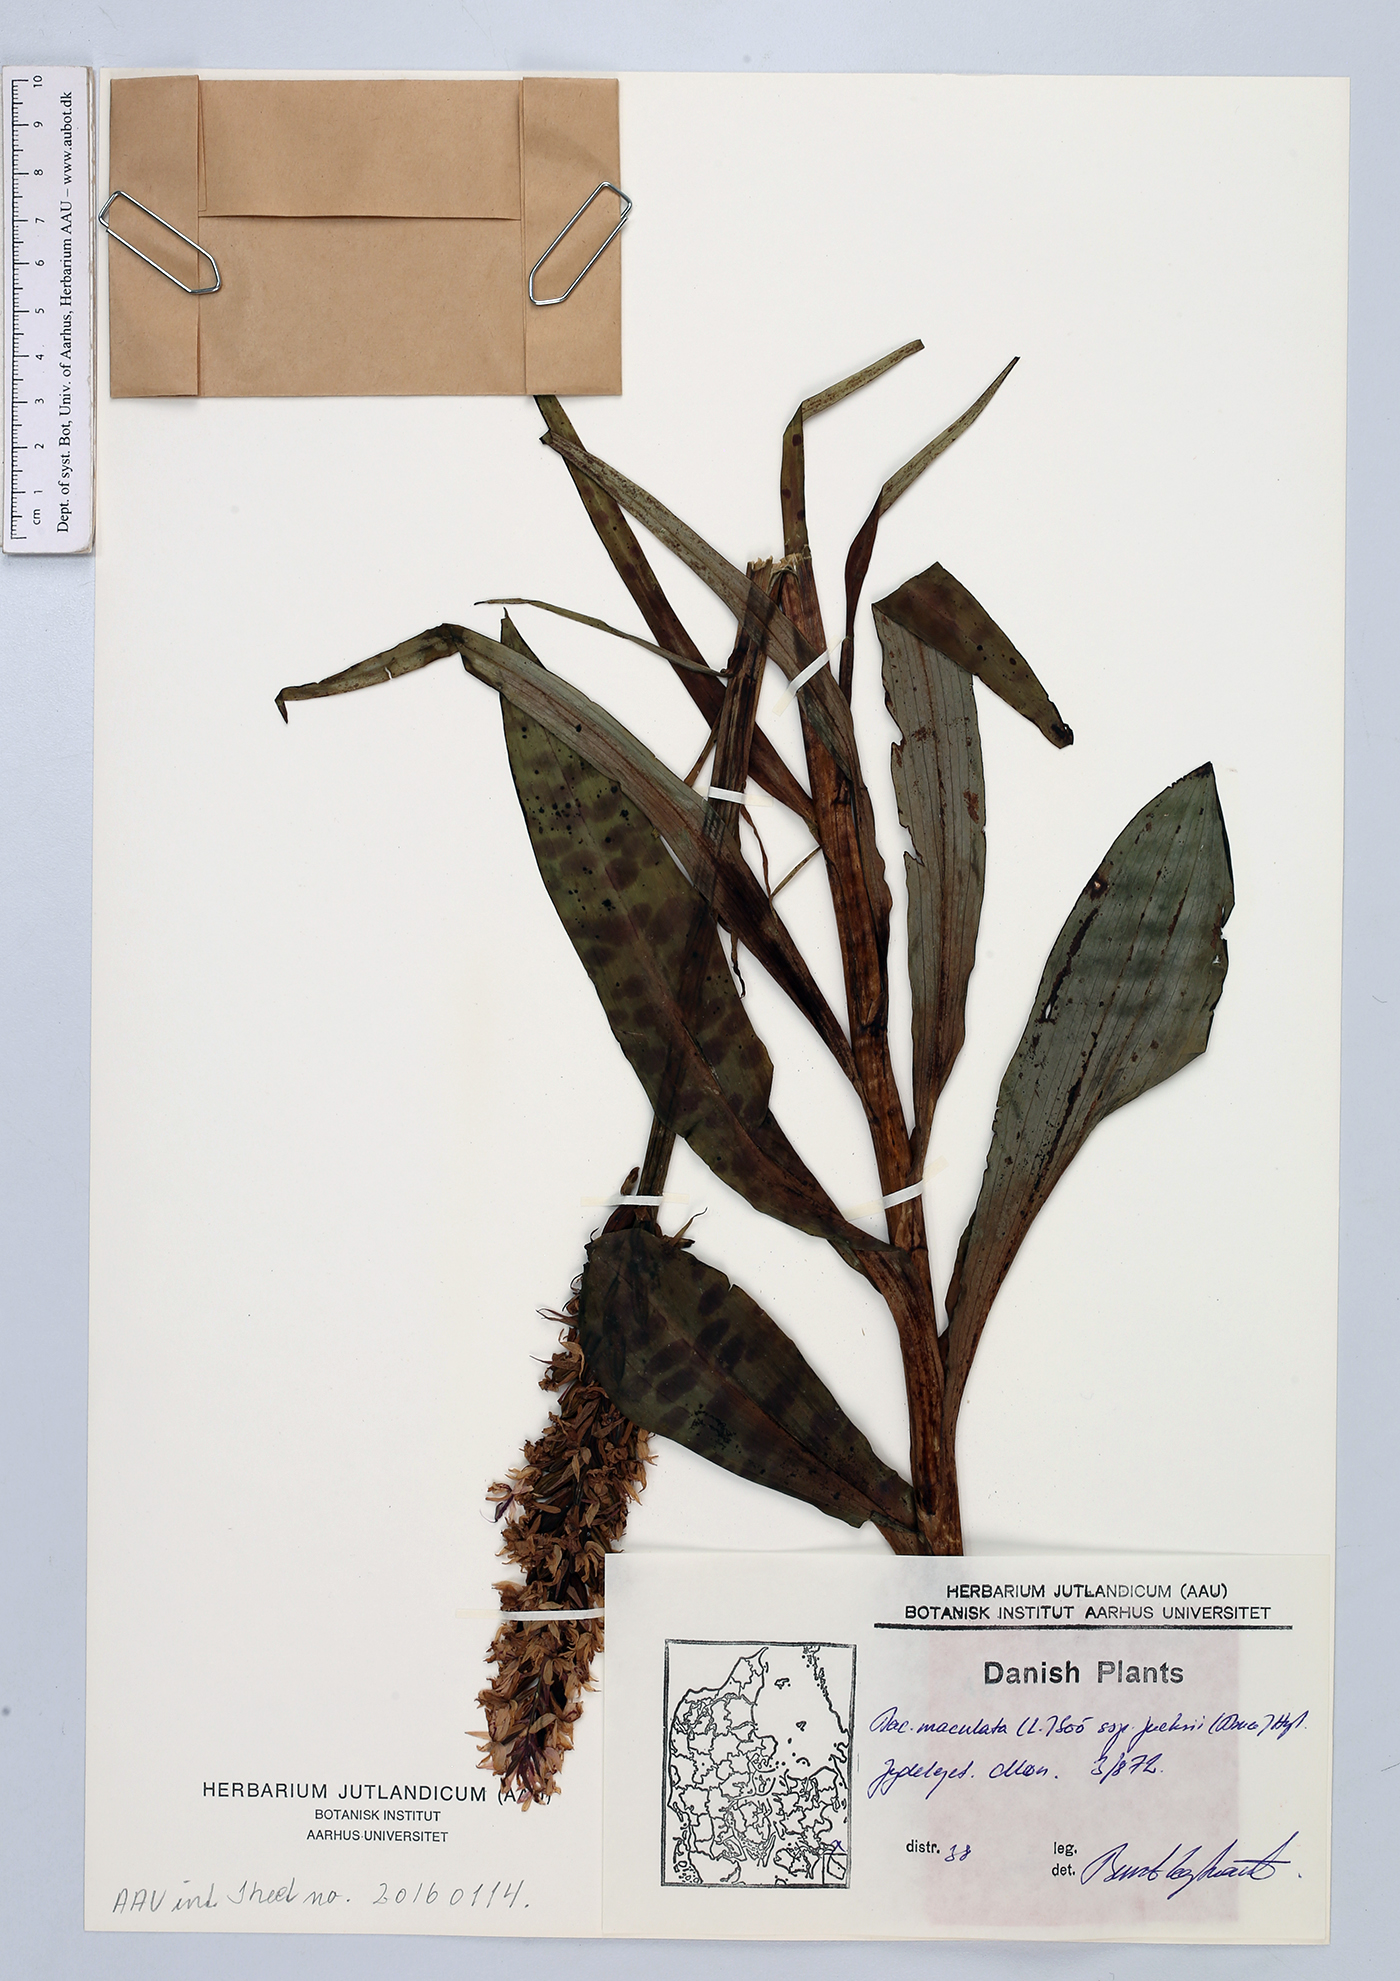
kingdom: Plantae
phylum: Tracheophyta
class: Liliopsida
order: Asparagales
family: Orchidaceae
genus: Dactylorhiza
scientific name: Dactylorhiza maculata
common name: Heath spotted-orchid
